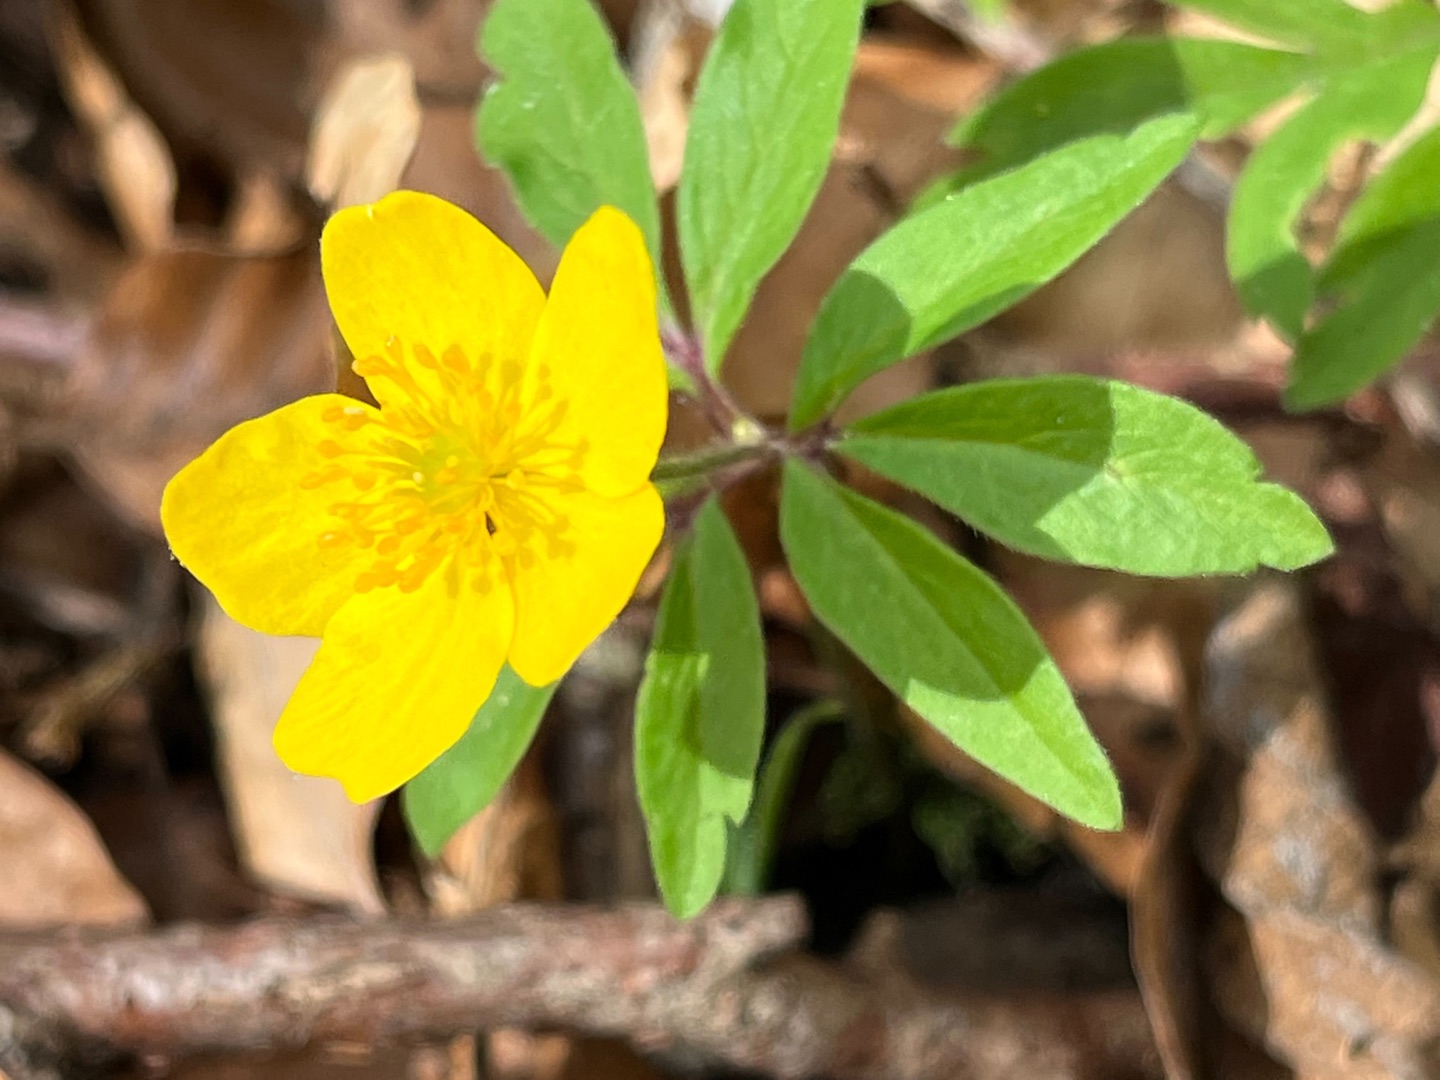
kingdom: Plantae
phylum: Tracheophyta
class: Magnoliopsida
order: Ranunculales
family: Ranunculaceae
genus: Anemone
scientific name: Anemone ranunculoides
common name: Gul anemone
